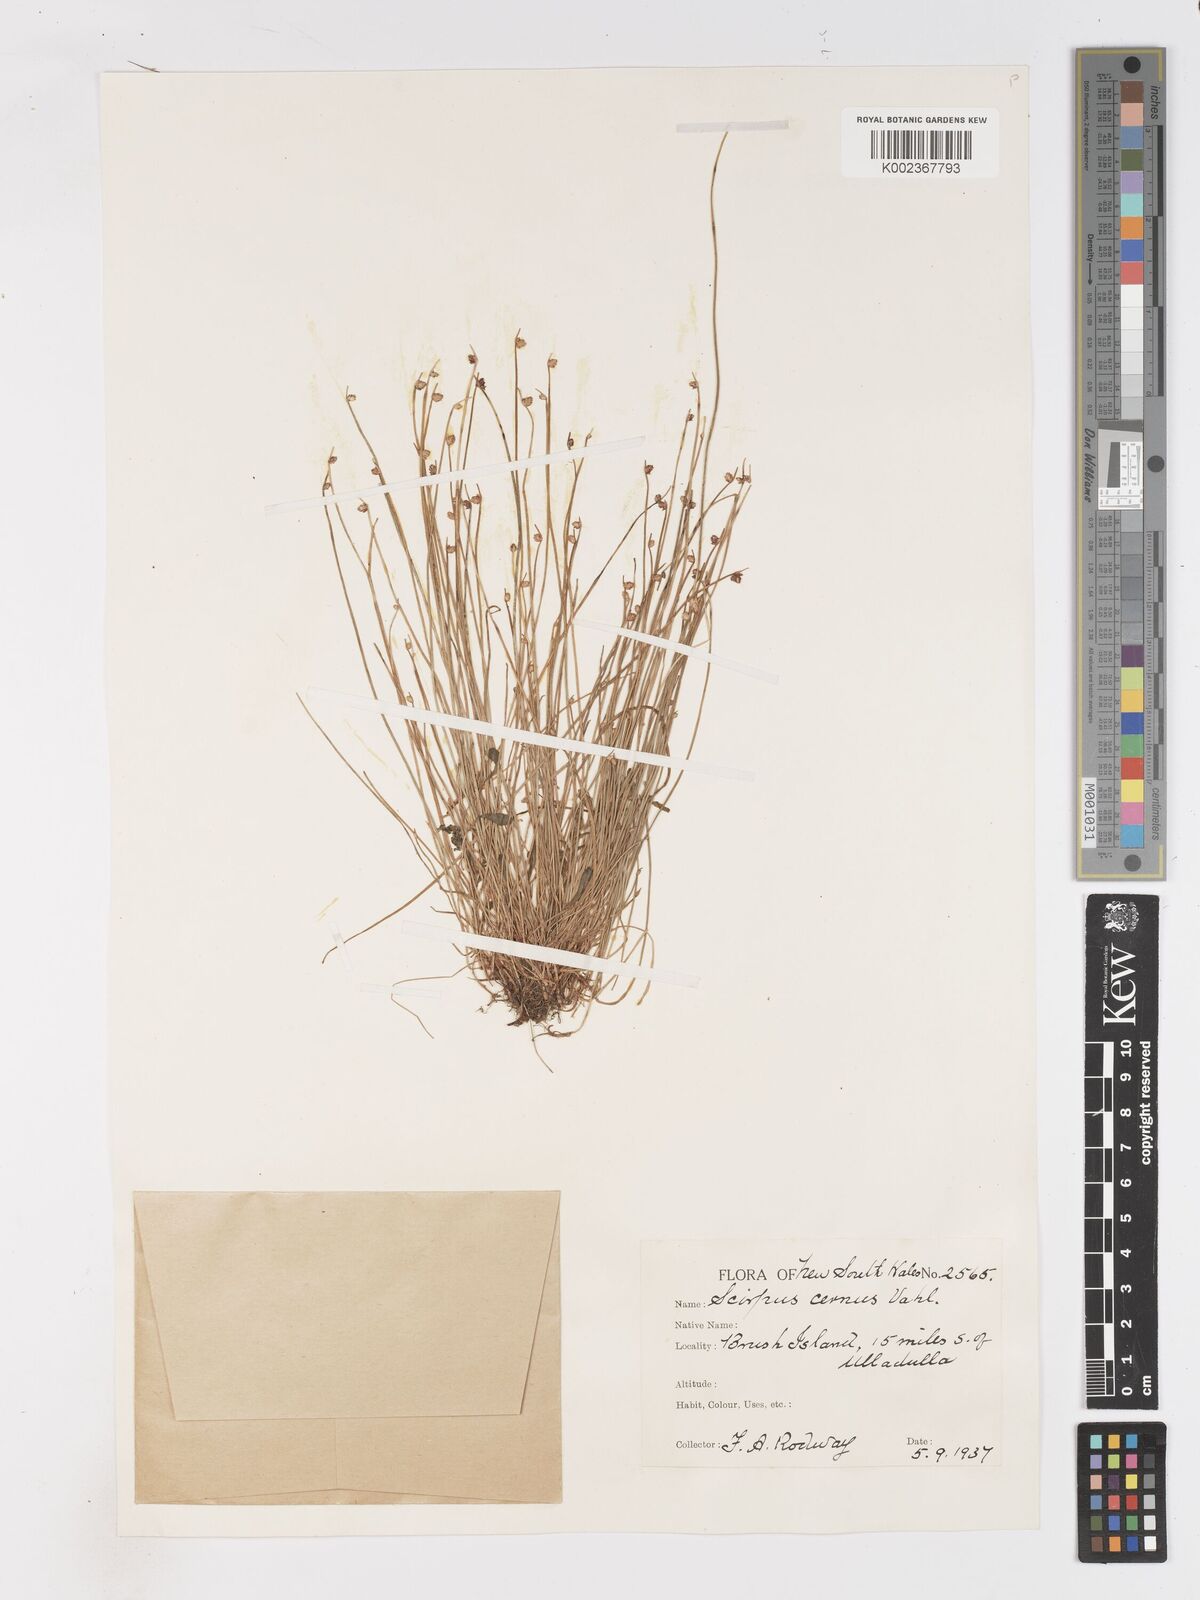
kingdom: Plantae
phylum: Tracheophyta
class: Liliopsida
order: Poales
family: Cyperaceae
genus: Isolepis
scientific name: Isolepis cernua
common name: Slender club-rush
